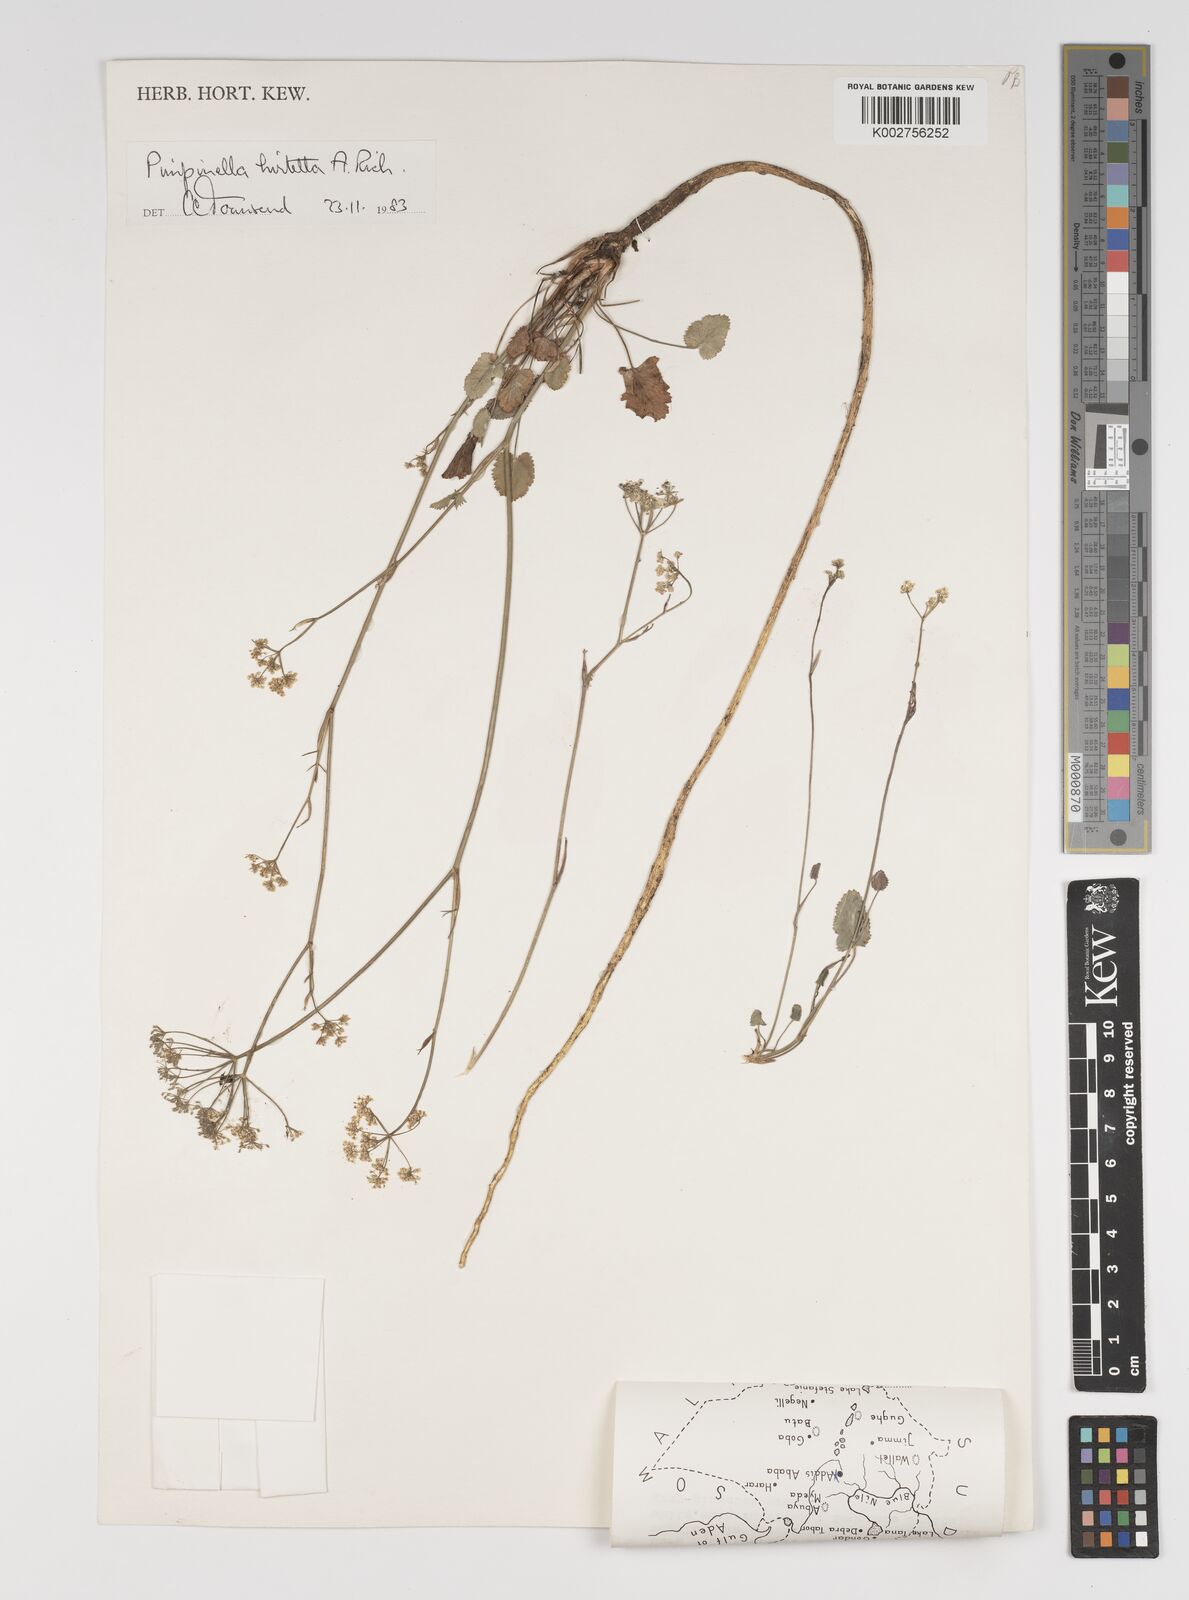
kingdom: Plantae
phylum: Tracheophyta
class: Magnoliopsida
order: Apiales
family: Apiaceae
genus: Pimpinella
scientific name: Pimpinella hirtella
